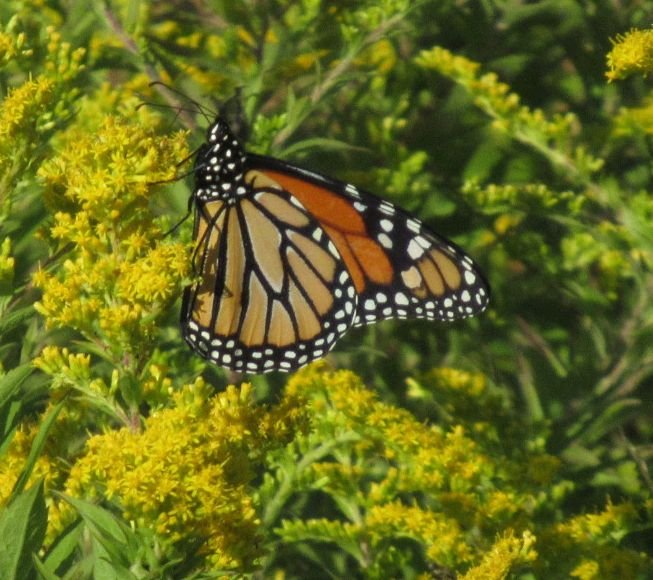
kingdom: Animalia
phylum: Arthropoda
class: Insecta
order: Lepidoptera
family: Nymphalidae
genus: Danaus
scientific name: Danaus plexippus
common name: Monarch
